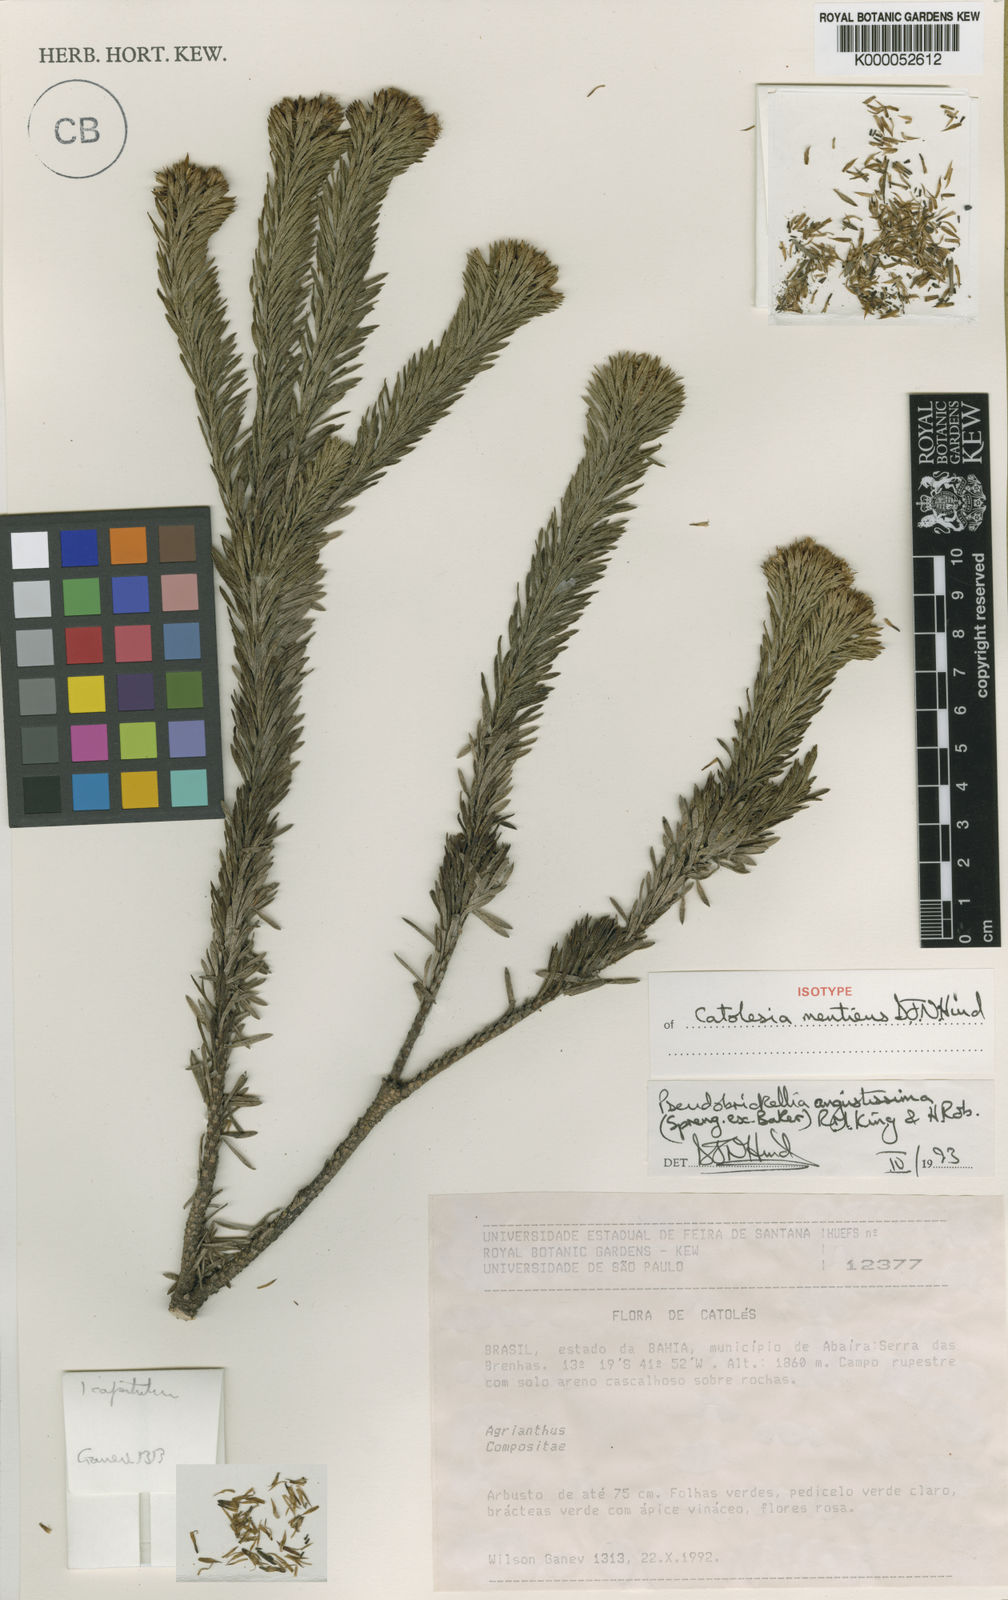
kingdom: Plantae
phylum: Tracheophyta
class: Magnoliopsida
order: Asterales
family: Asteraceae
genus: Catolesia
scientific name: Catolesia mentiens
